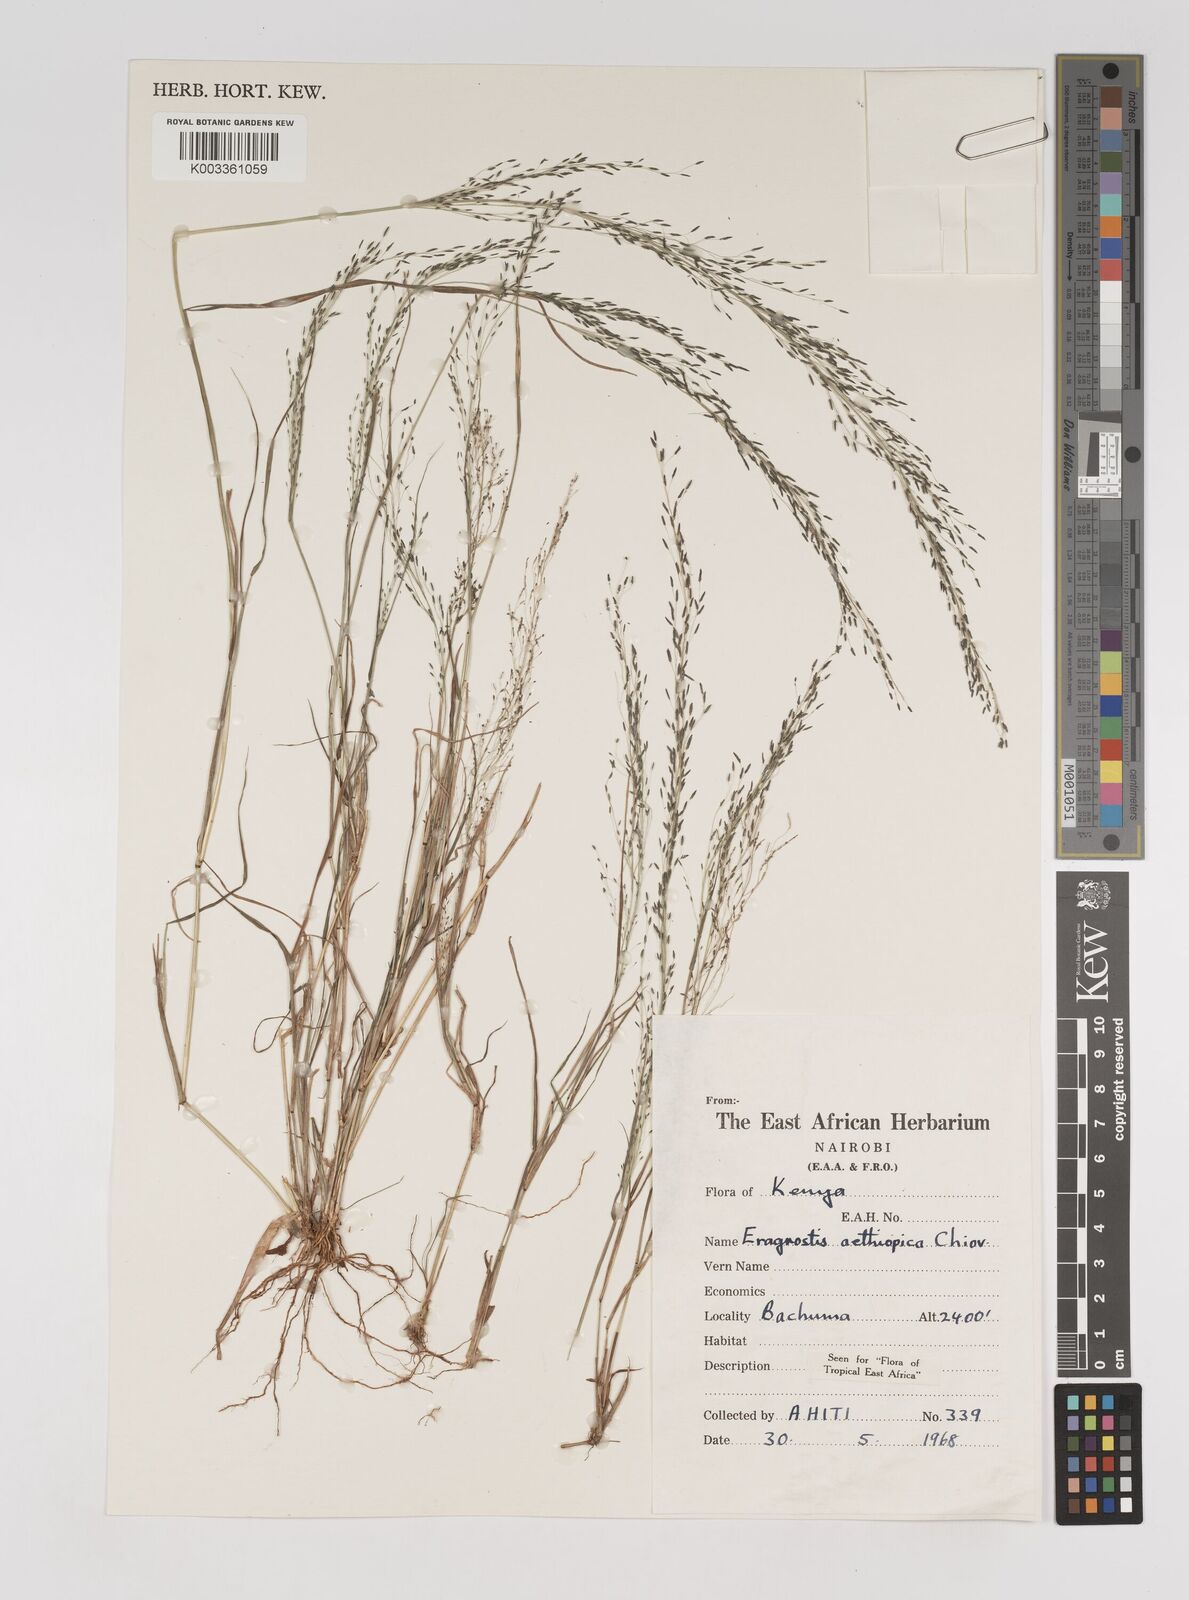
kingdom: Plantae
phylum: Tracheophyta
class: Liliopsida
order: Poales
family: Poaceae
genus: Eragrostis
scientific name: Eragrostis aethiopica
